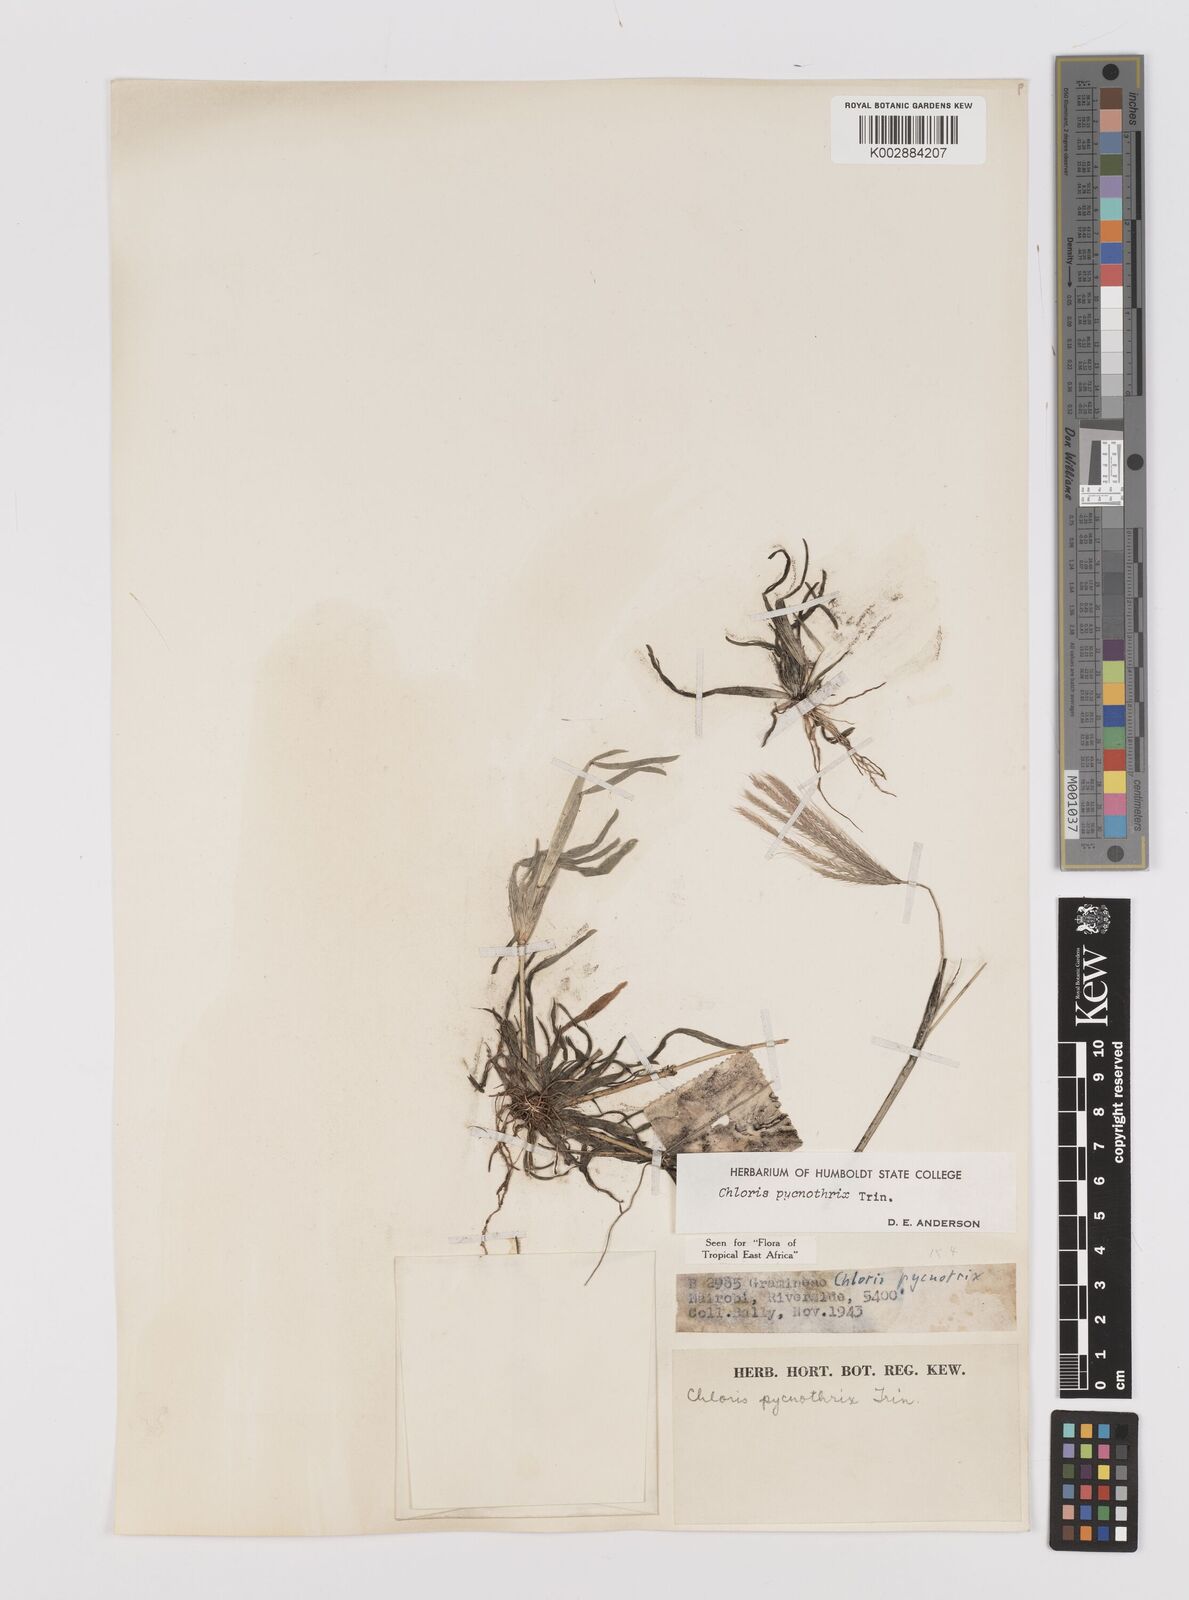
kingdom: Plantae
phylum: Tracheophyta
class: Liliopsida
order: Poales
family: Poaceae
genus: Chloris
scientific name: Chloris pycnothrix
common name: Spiderweb chloris
